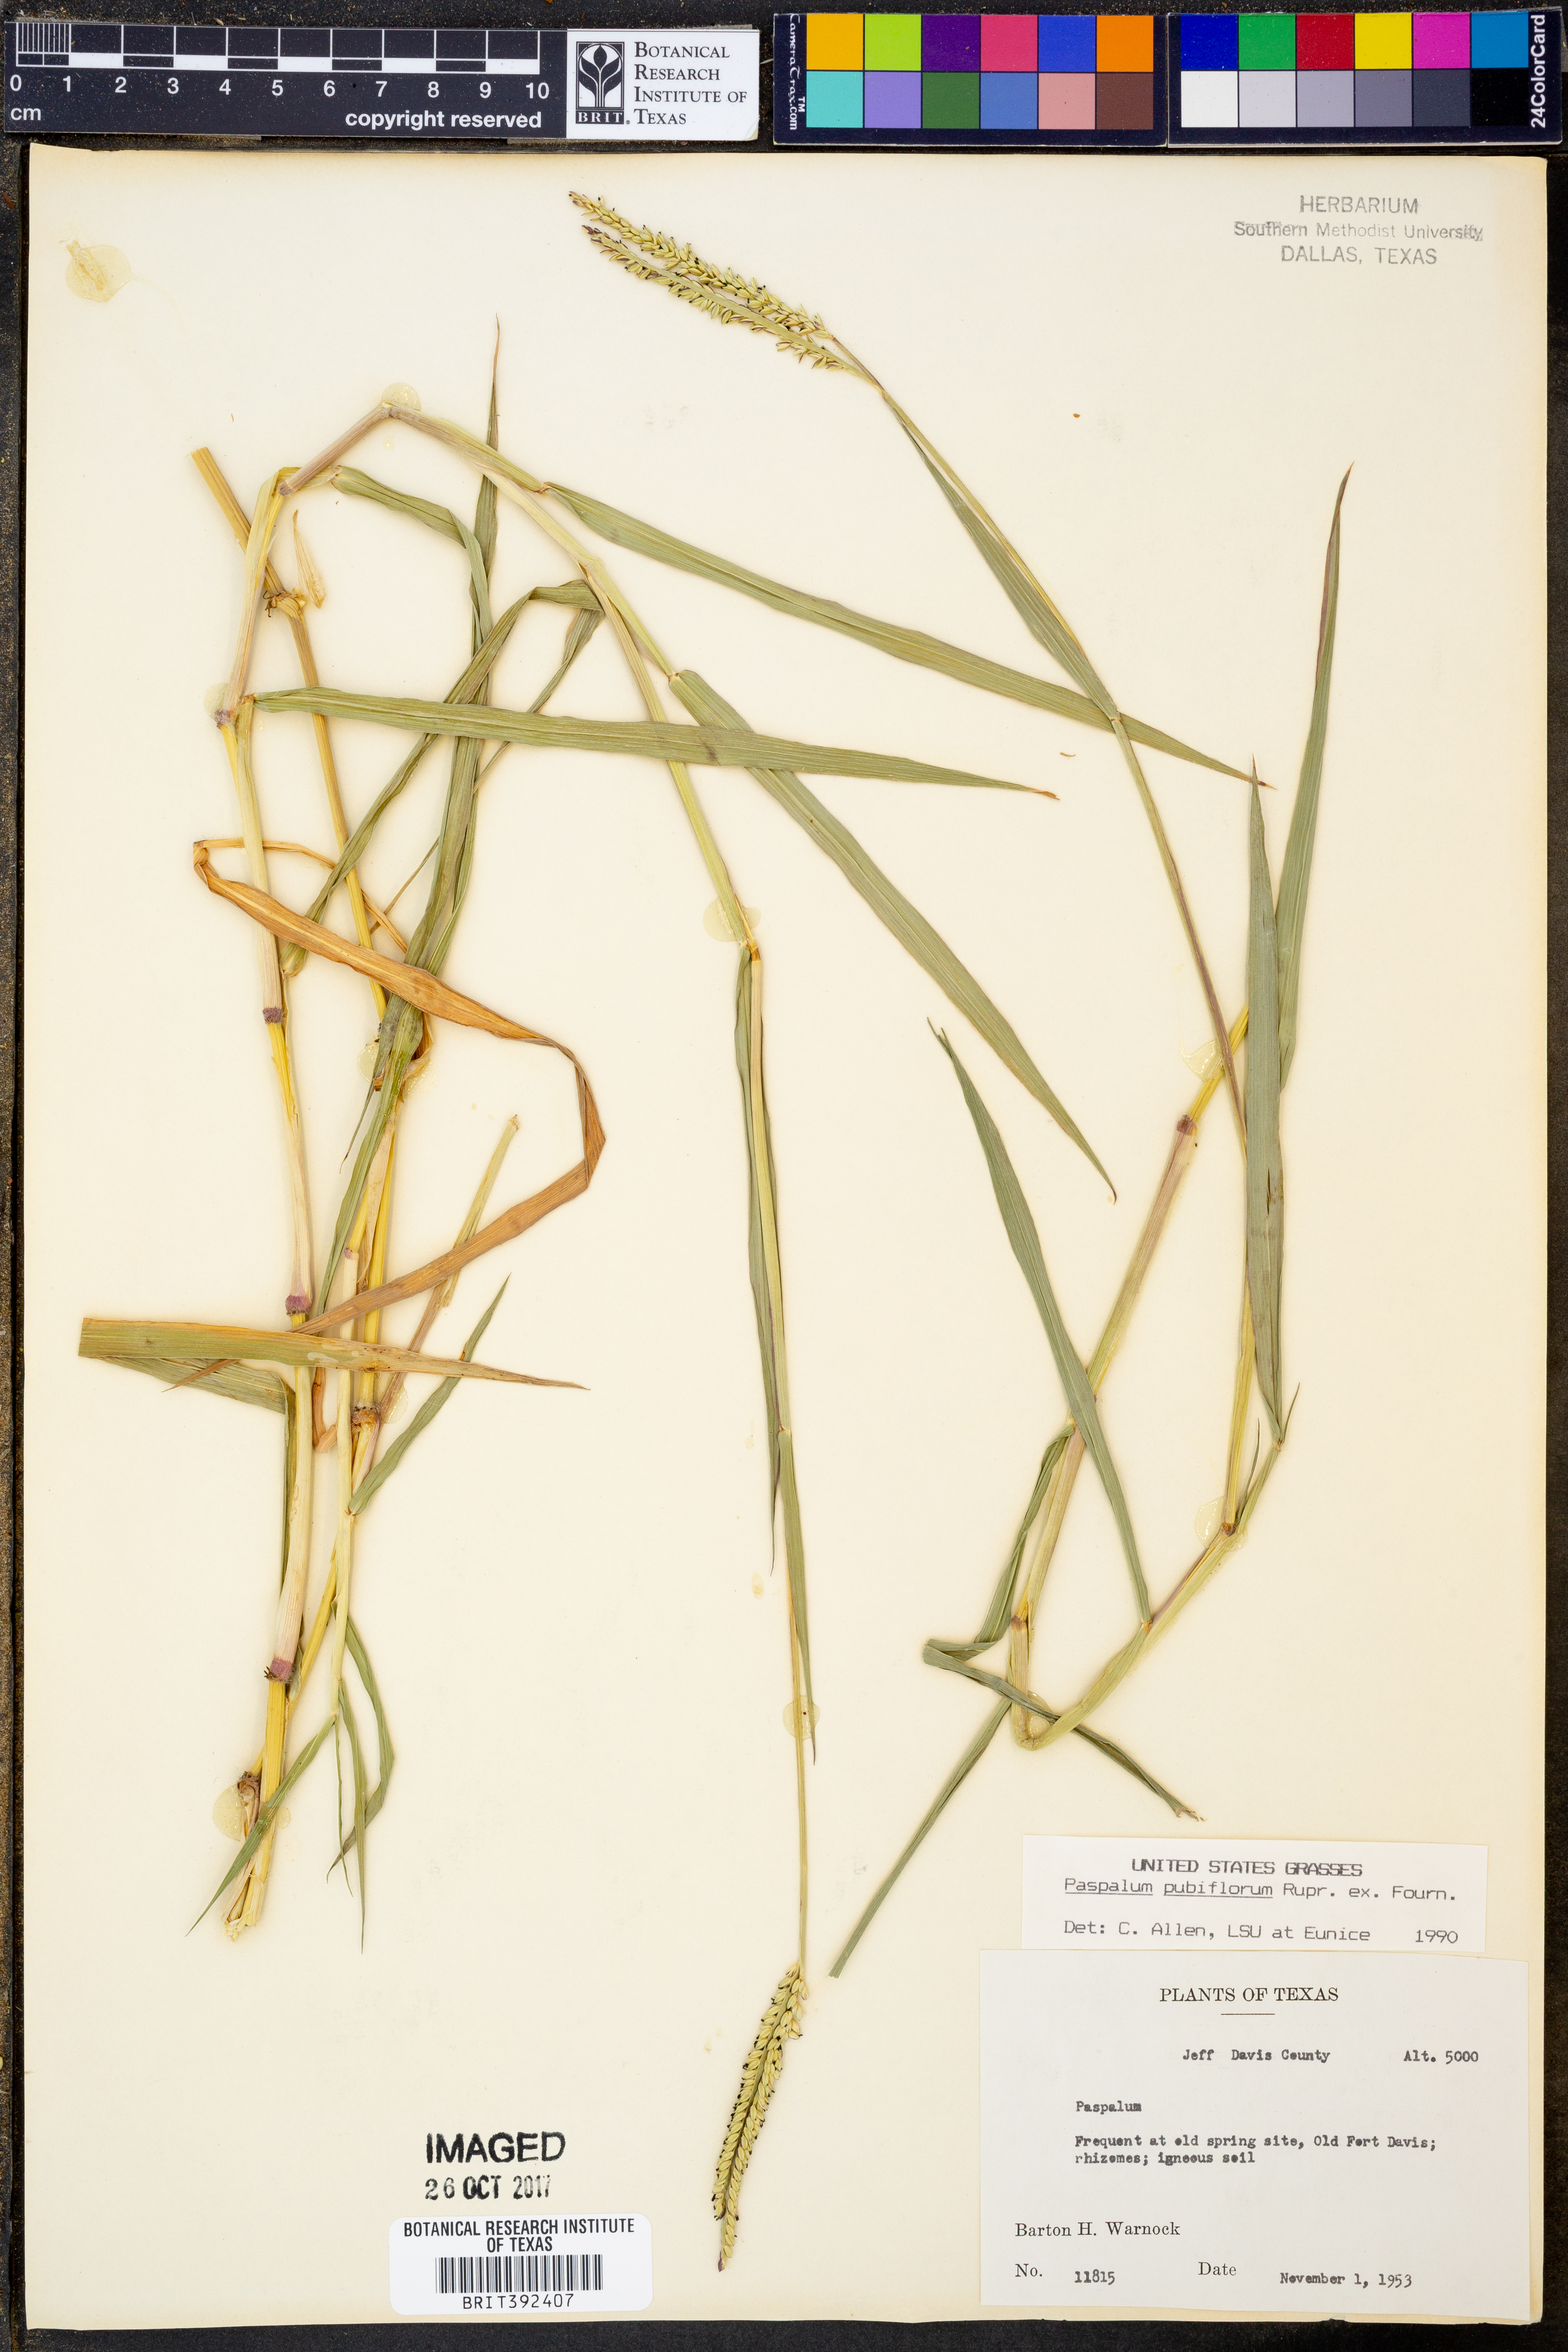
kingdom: Plantae
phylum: Tracheophyta
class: Liliopsida
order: Poales
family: Poaceae
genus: Paspalum
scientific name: Paspalum pubiflorum
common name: Hairy-seed paspalum
